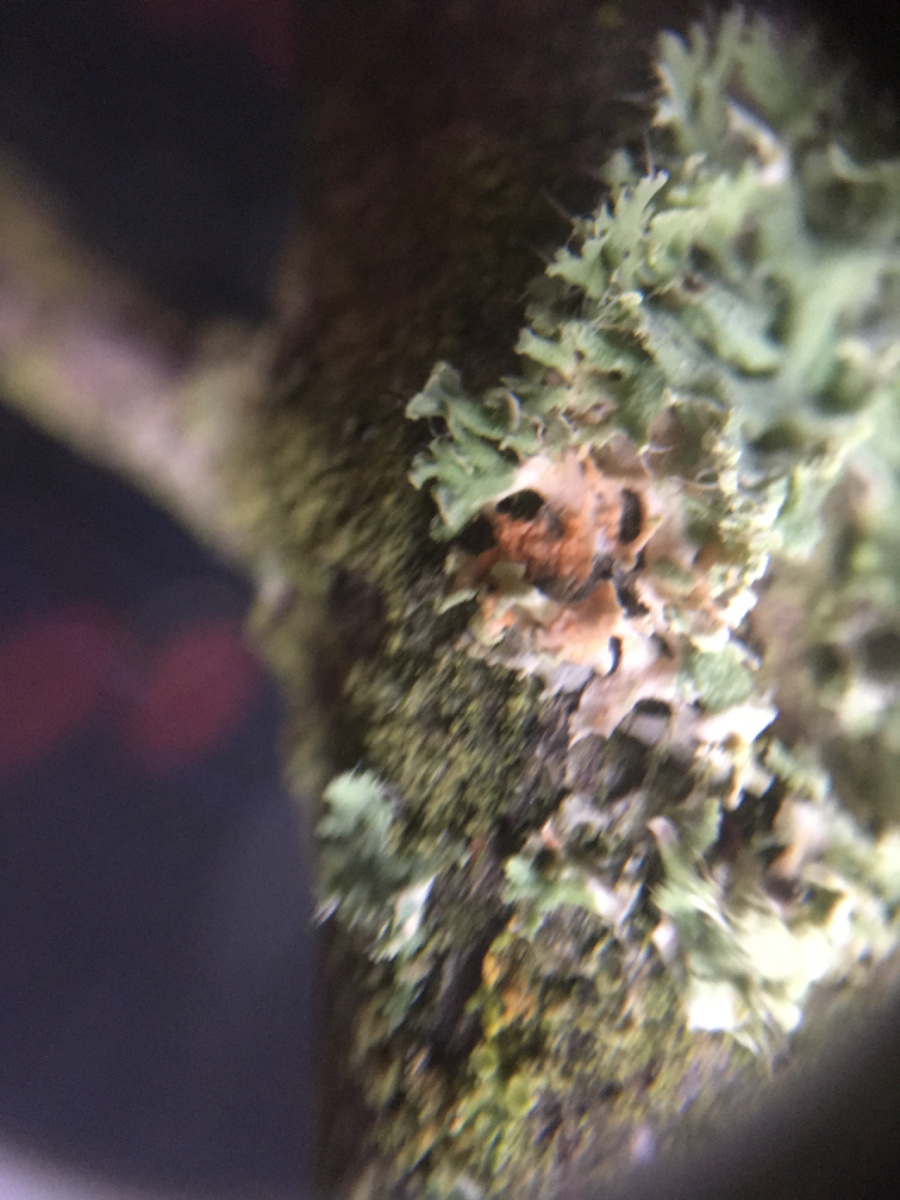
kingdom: Fungi
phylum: Basidiomycota
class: Agaricomycetes
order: Corticiales
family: Corticiaceae
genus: Erythricium
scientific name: Erythricium aurantiacum
